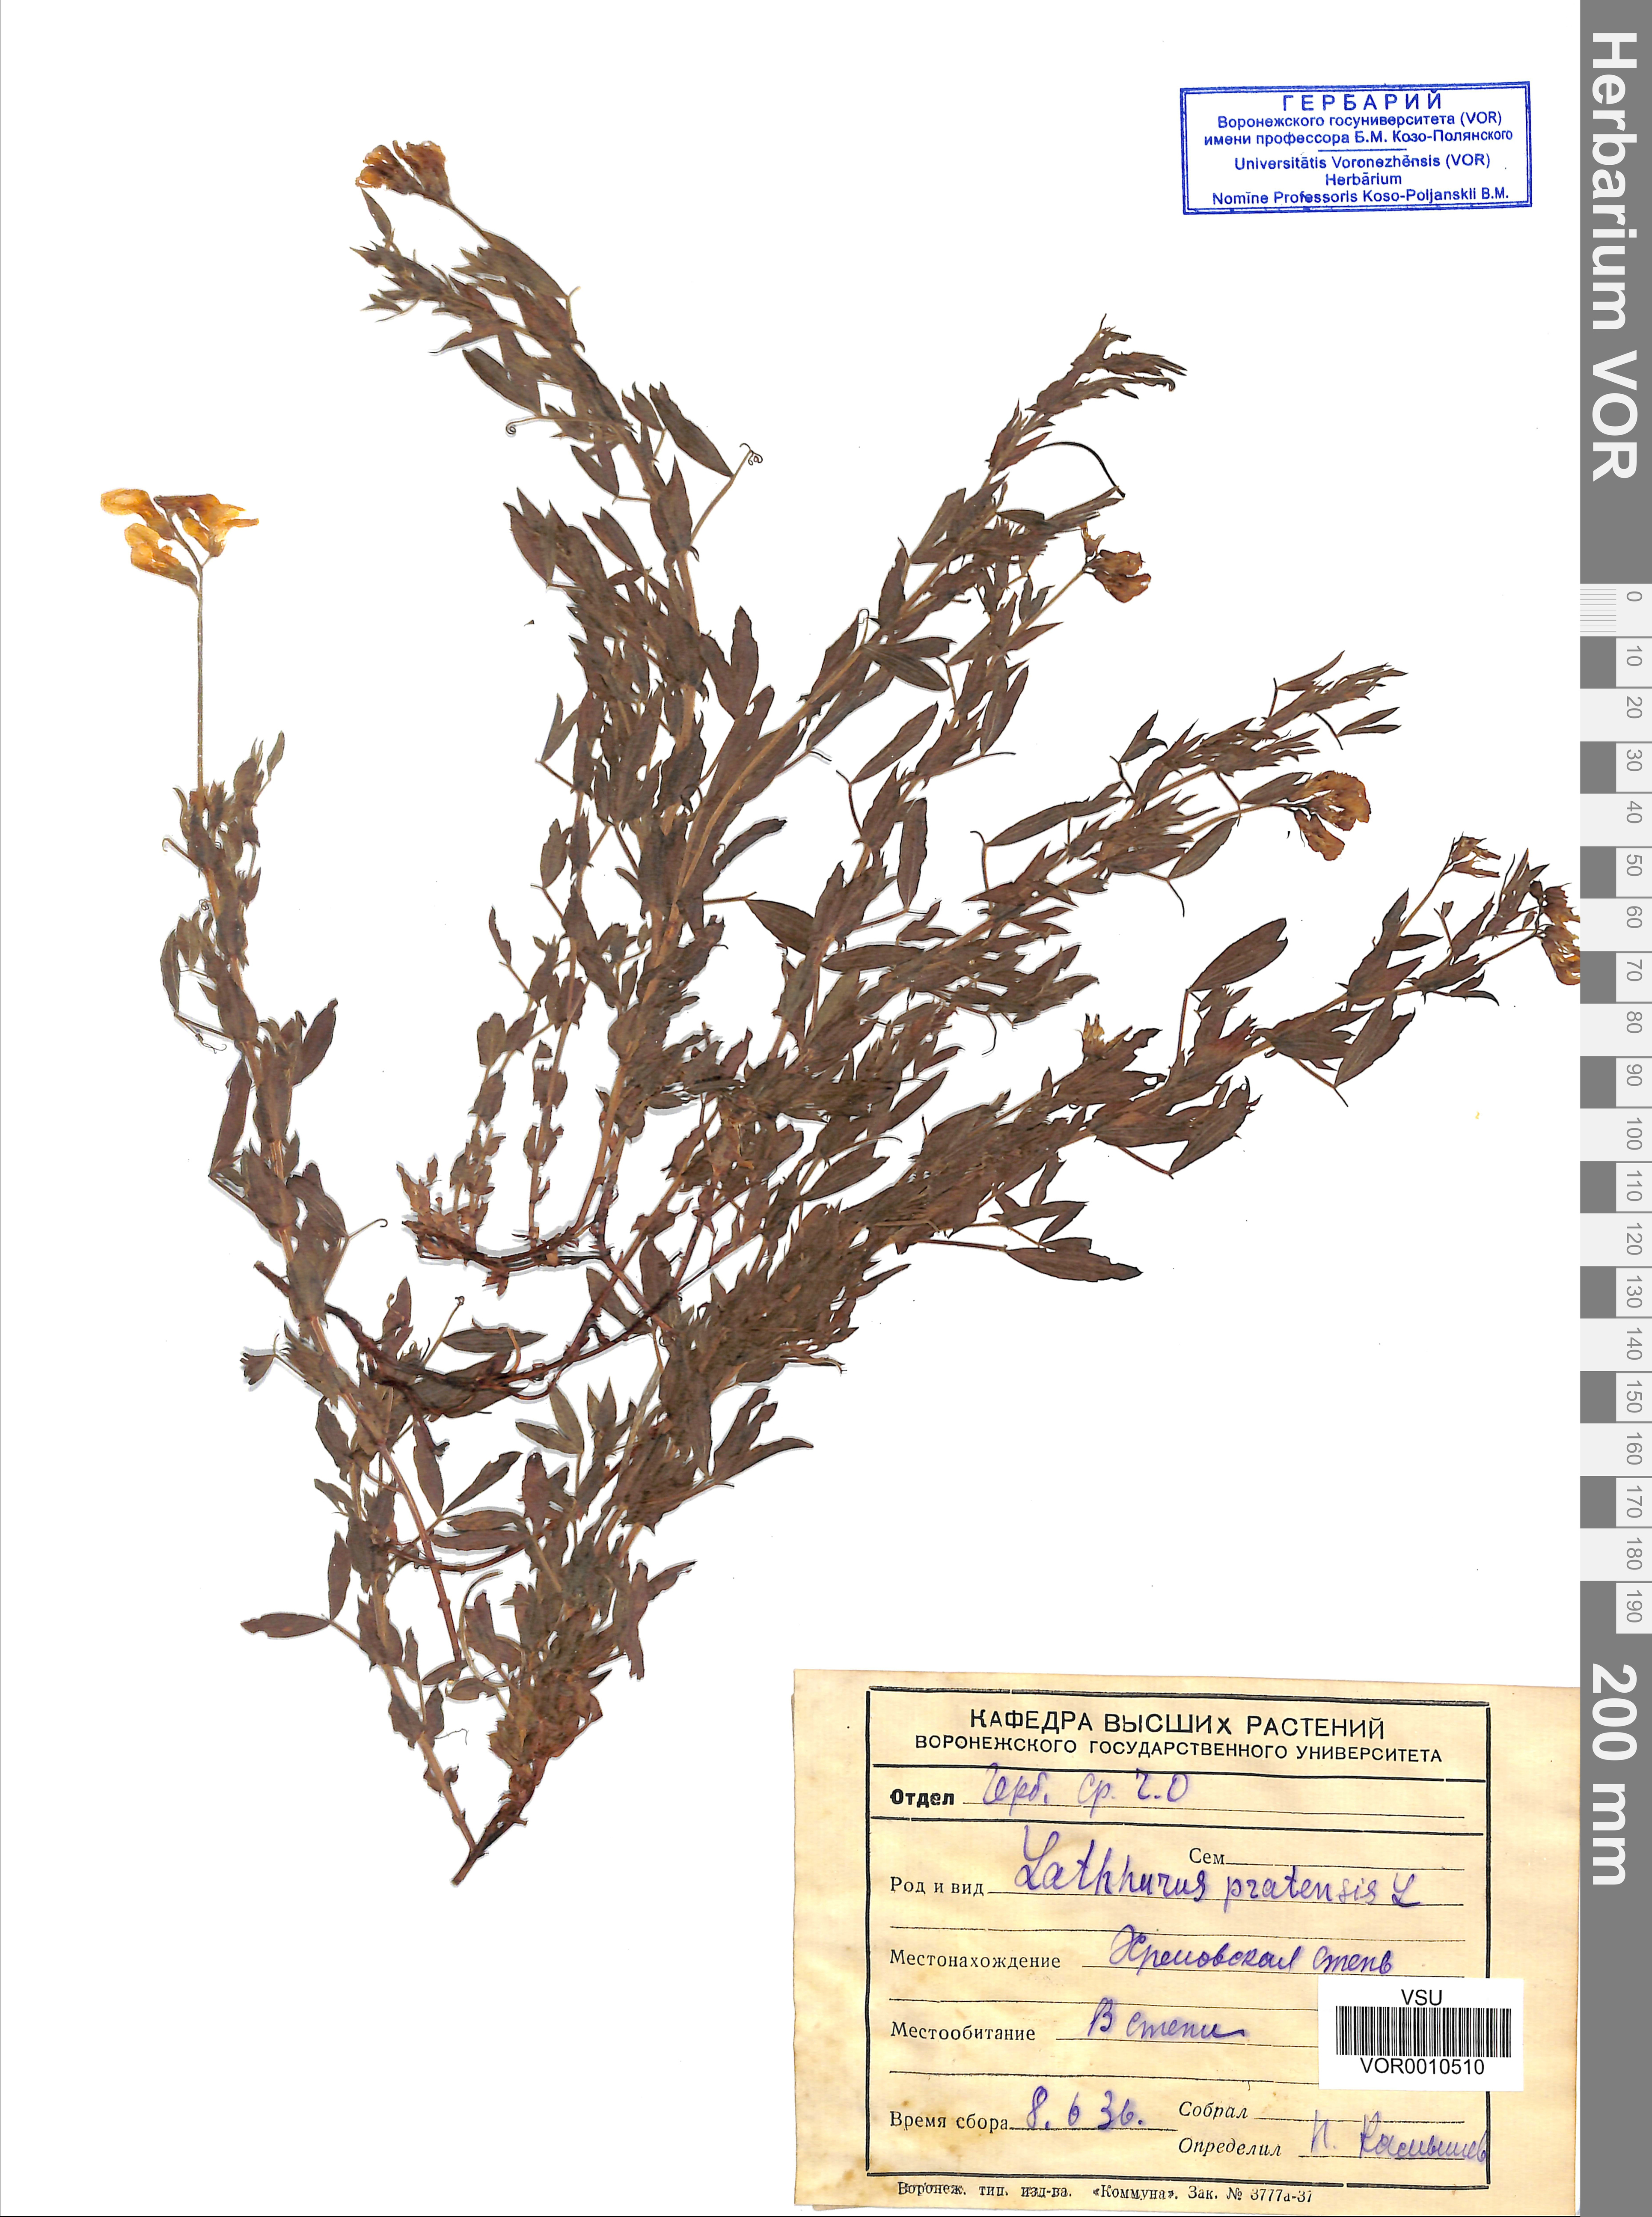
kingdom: Plantae
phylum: Tracheophyta
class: Magnoliopsida
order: Fabales
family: Fabaceae
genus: Lathyrus
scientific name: Lathyrus pratensis
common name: Meadow vetchling
